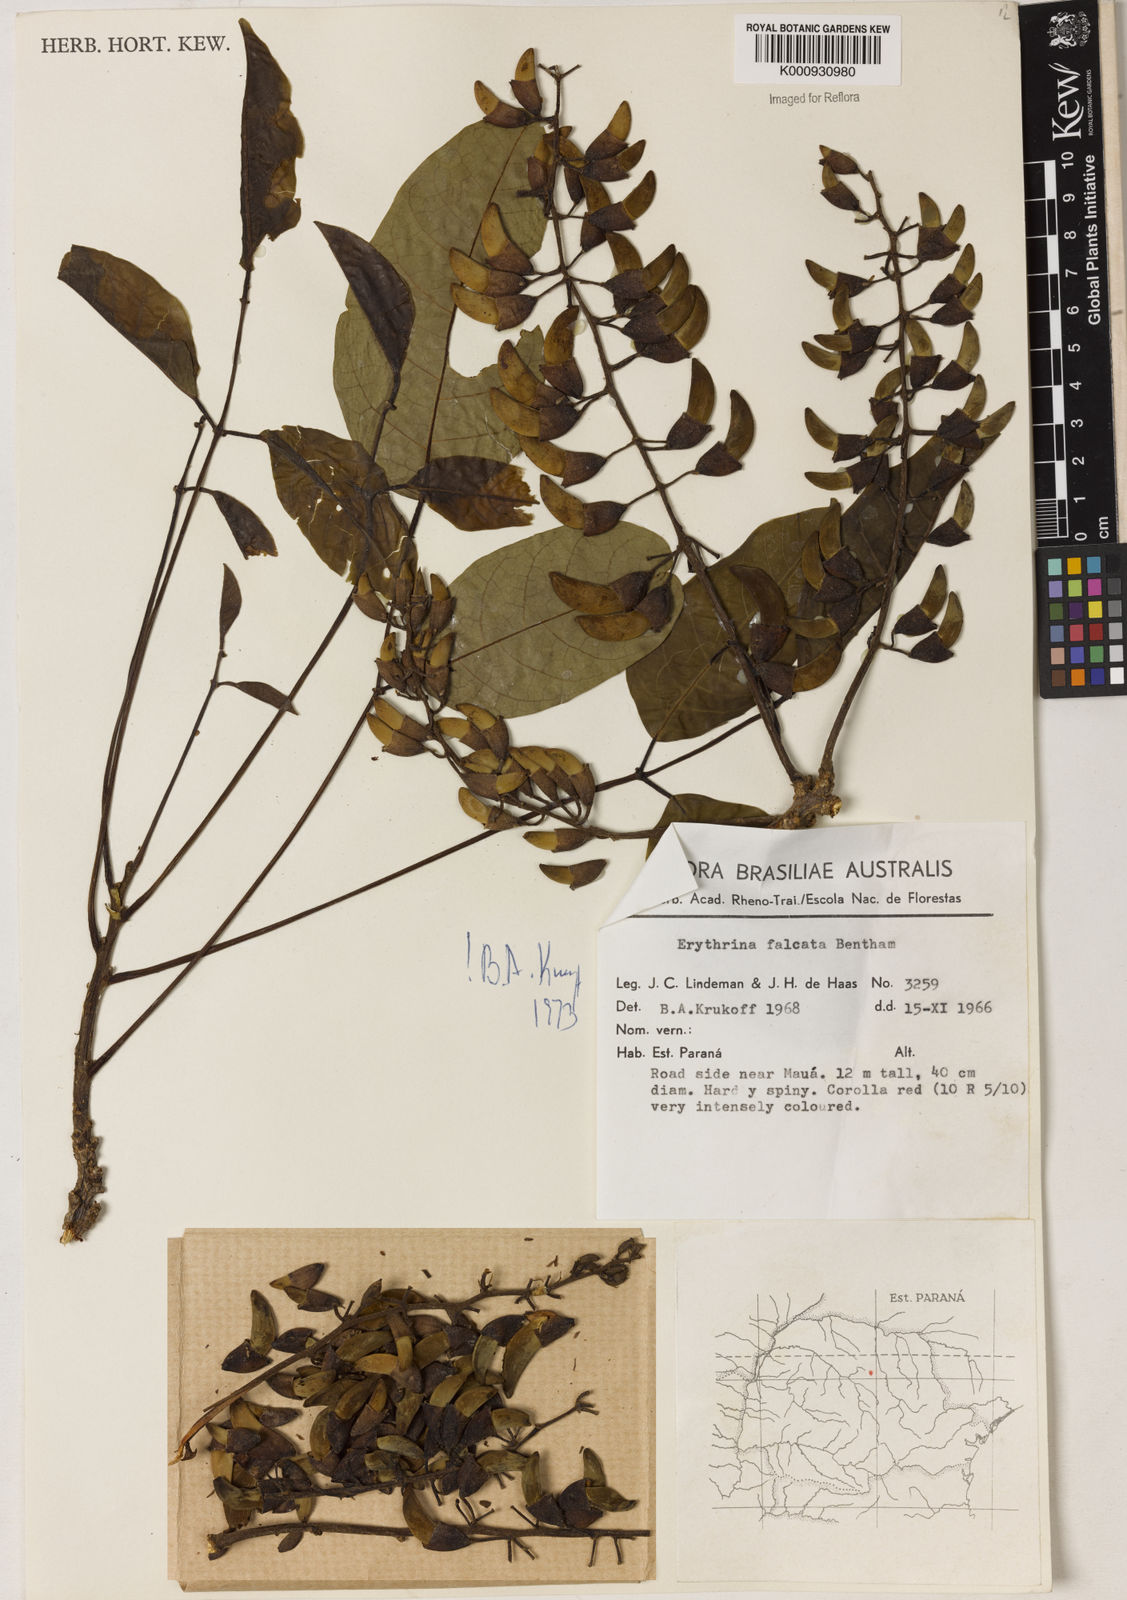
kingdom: Plantae
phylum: Tracheophyta
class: Magnoliopsida
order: Fabales
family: Fabaceae
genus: Erythrina
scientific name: Erythrina falcata
